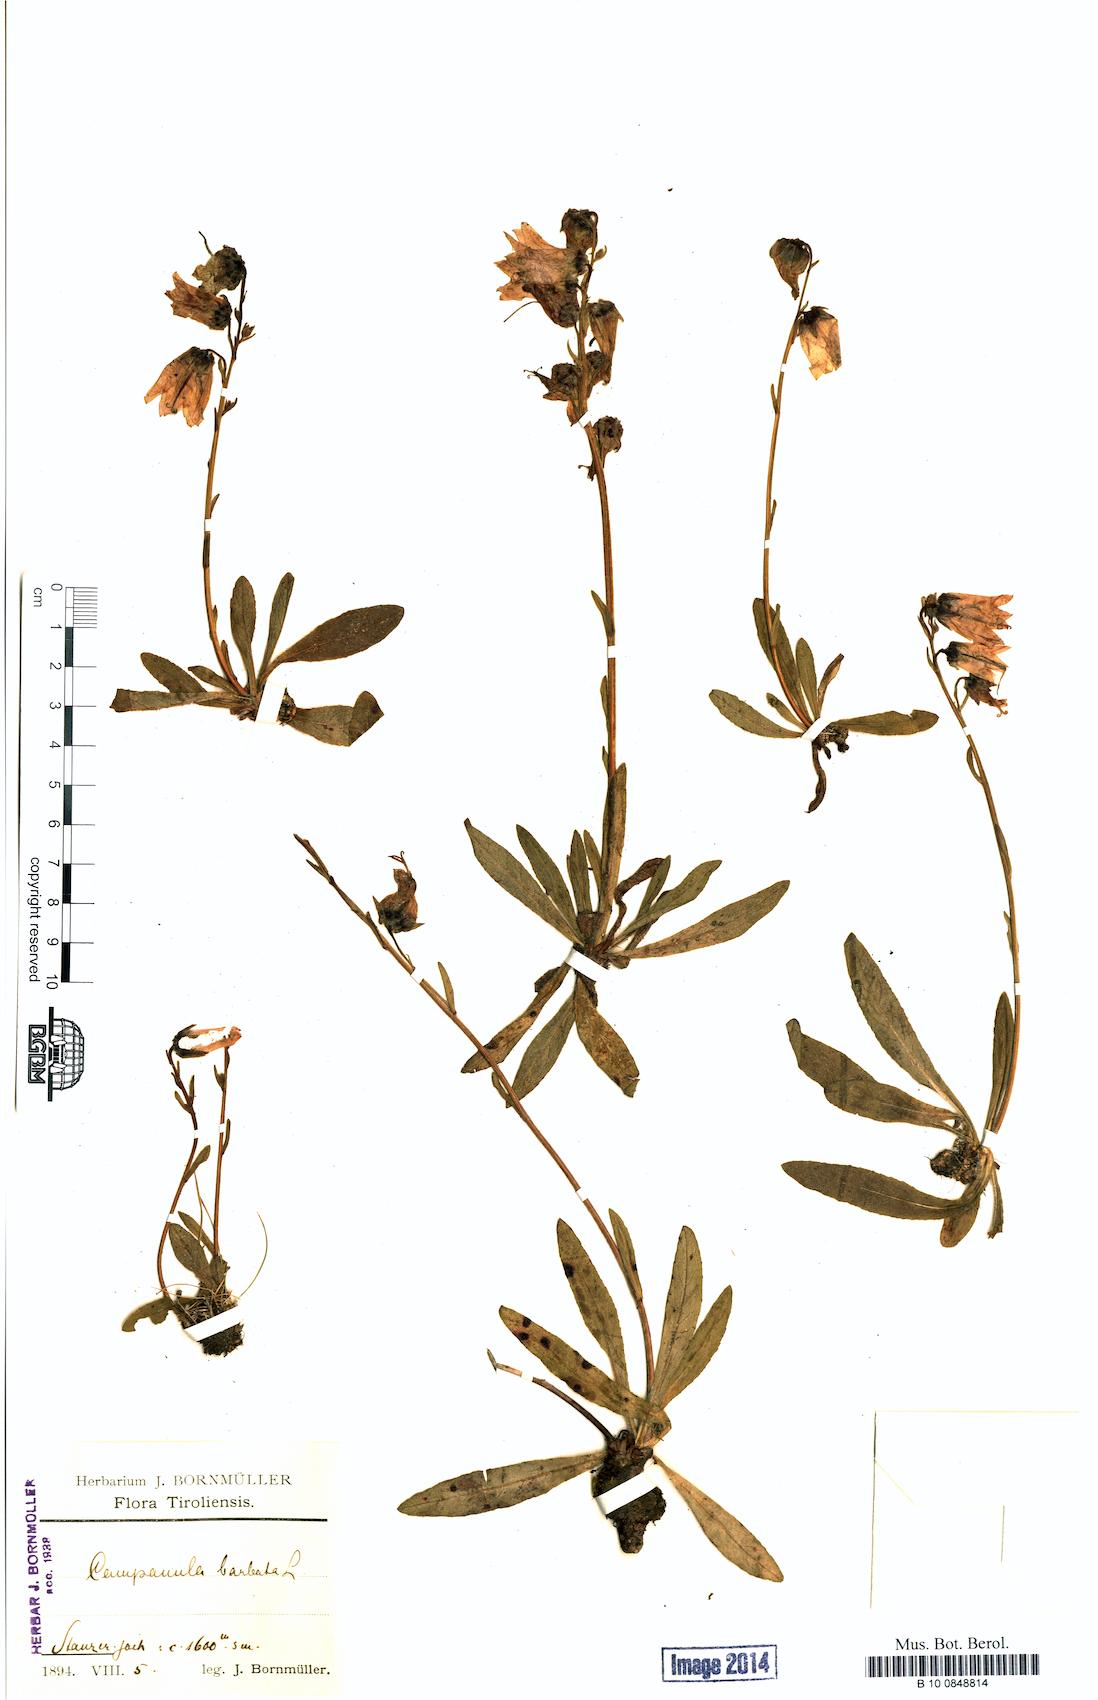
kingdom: Plantae
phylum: Tracheophyta
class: Magnoliopsida
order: Asterales
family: Campanulaceae
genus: Campanula
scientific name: Campanula barbata
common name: Bearded bellflower
